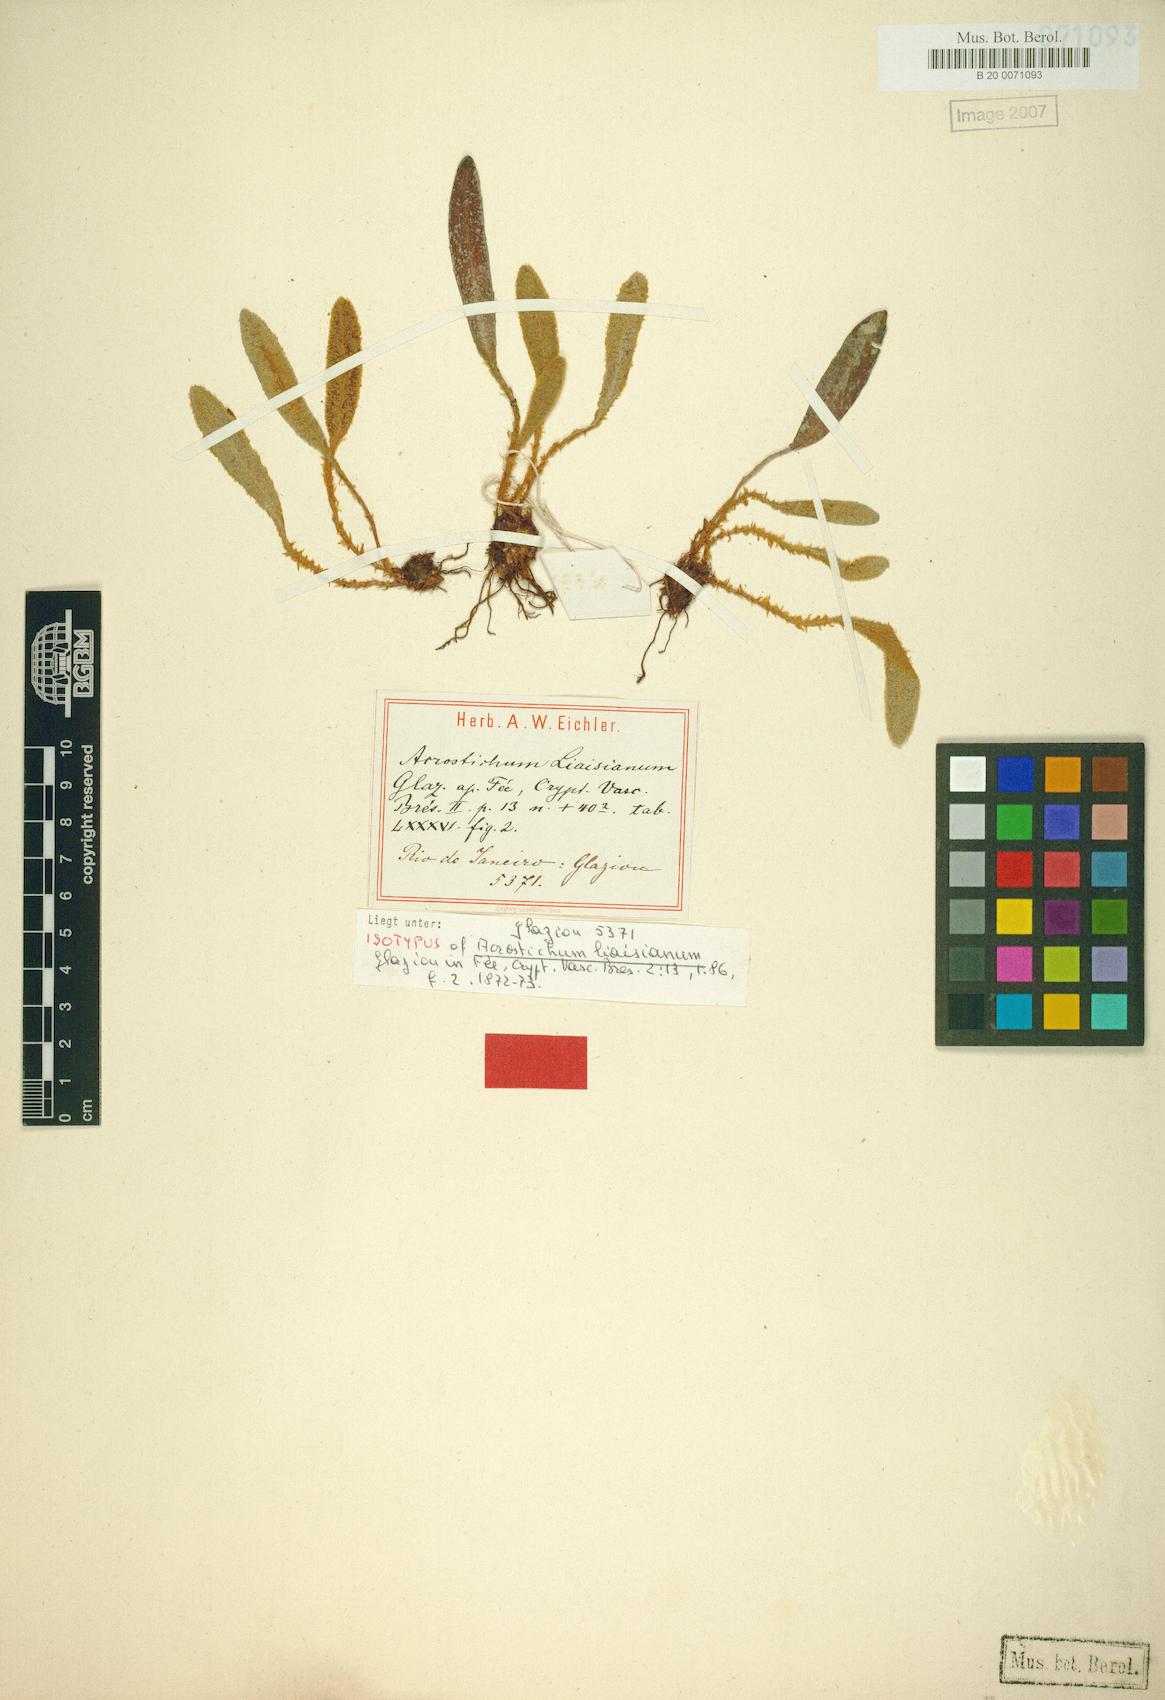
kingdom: Plantae
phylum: Tracheophyta
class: Polypodiopsida
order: Polypodiales
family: Dryopteridaceae
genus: Elaphoglossum
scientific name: Elaphoglossum liaisianum
